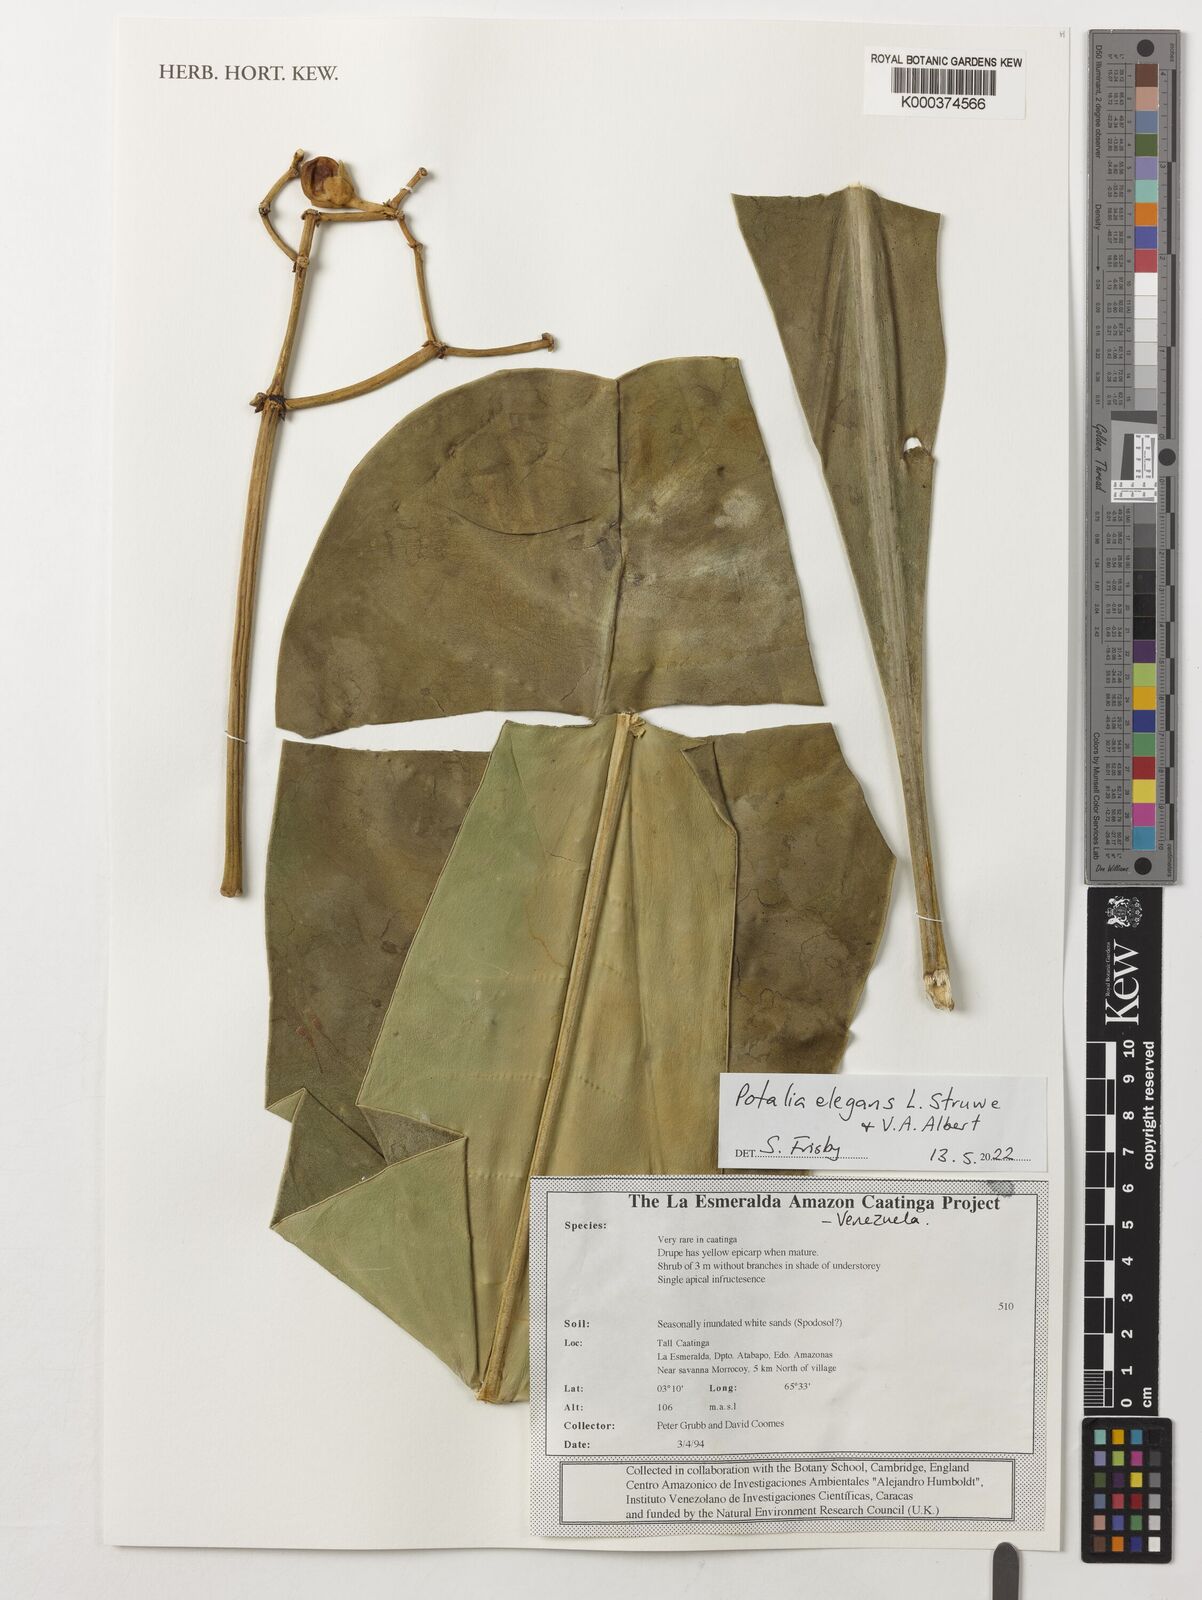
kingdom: Plantae
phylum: Tracheophyta
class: Magnoliopsida
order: Gentianales
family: Gentianaceae
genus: Potalia
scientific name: Potalia elegans
